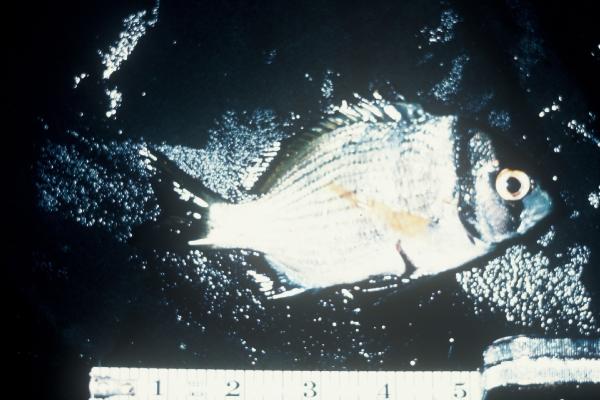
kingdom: Animalia
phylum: Chordata
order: Perciformes
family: Sparidae
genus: Acanthopagrus
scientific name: Acanthopagrus bifasciatus
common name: Twobar seabream
